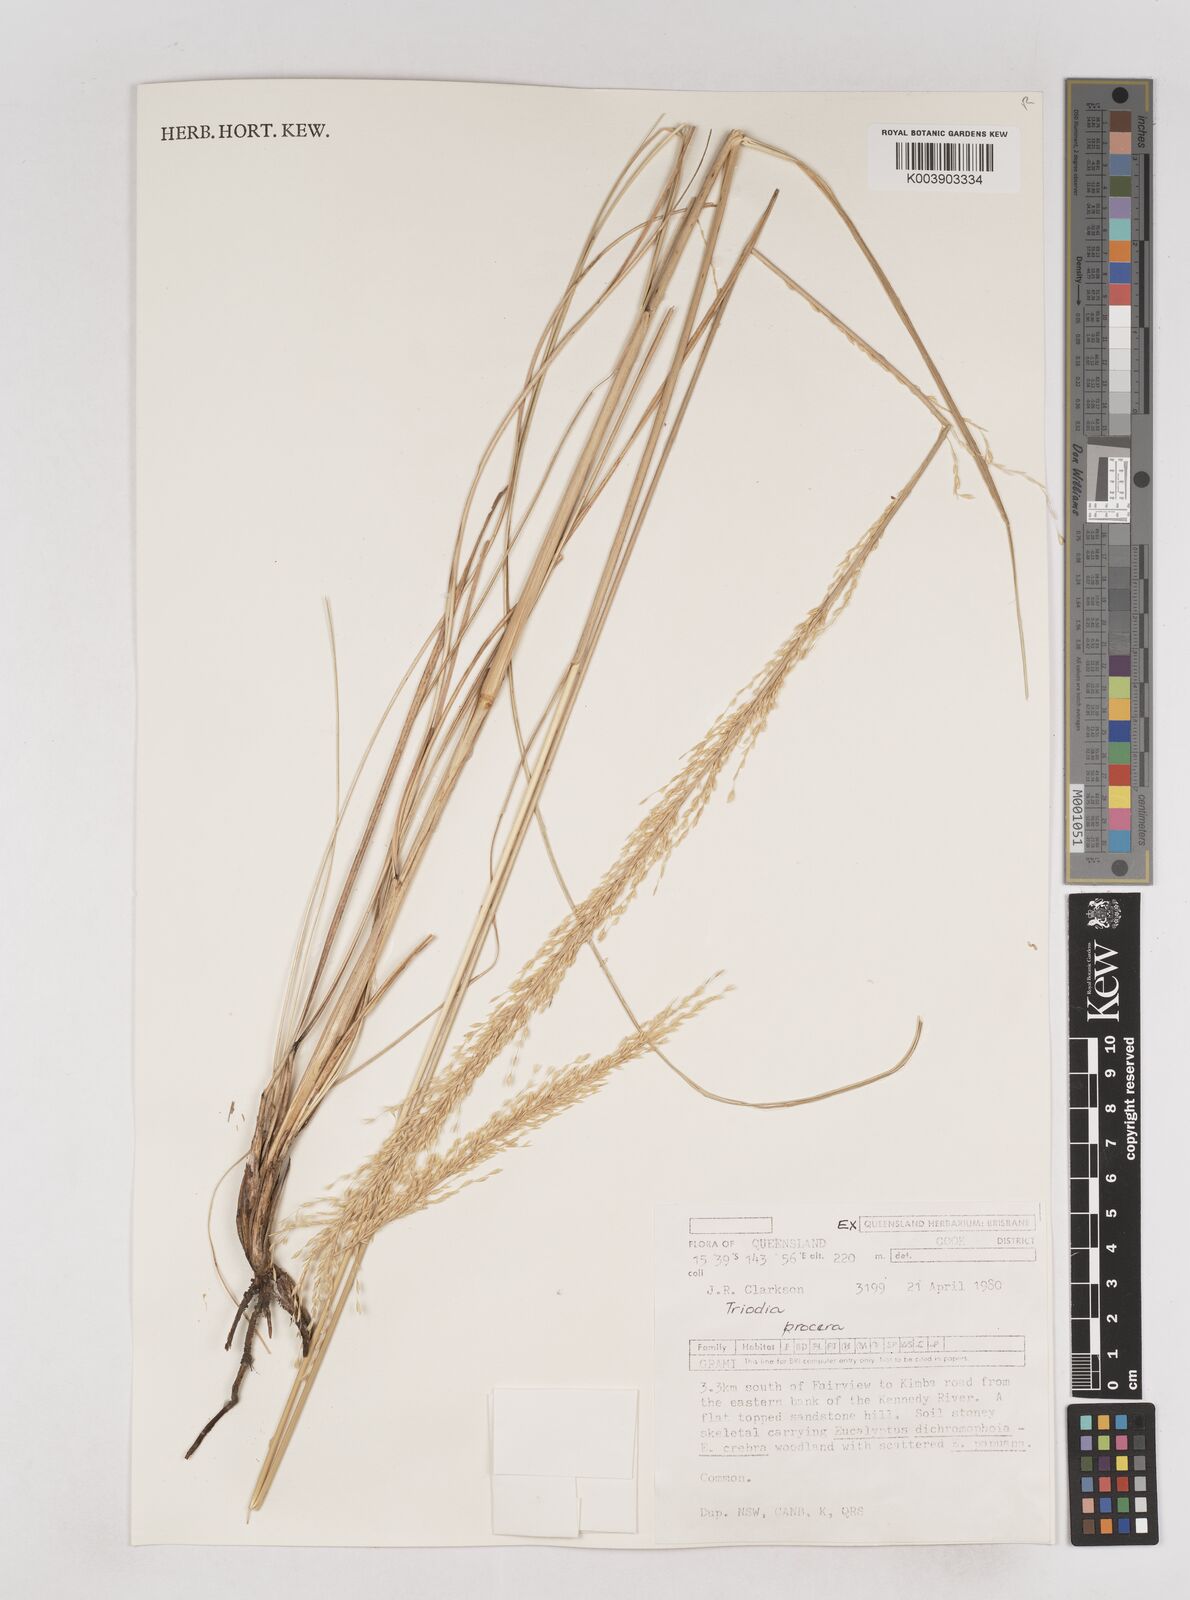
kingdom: Plantae
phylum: Tracheophyta
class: Liliopsida
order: Poales
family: Poaceae
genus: Triodia
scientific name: Triodia procera
